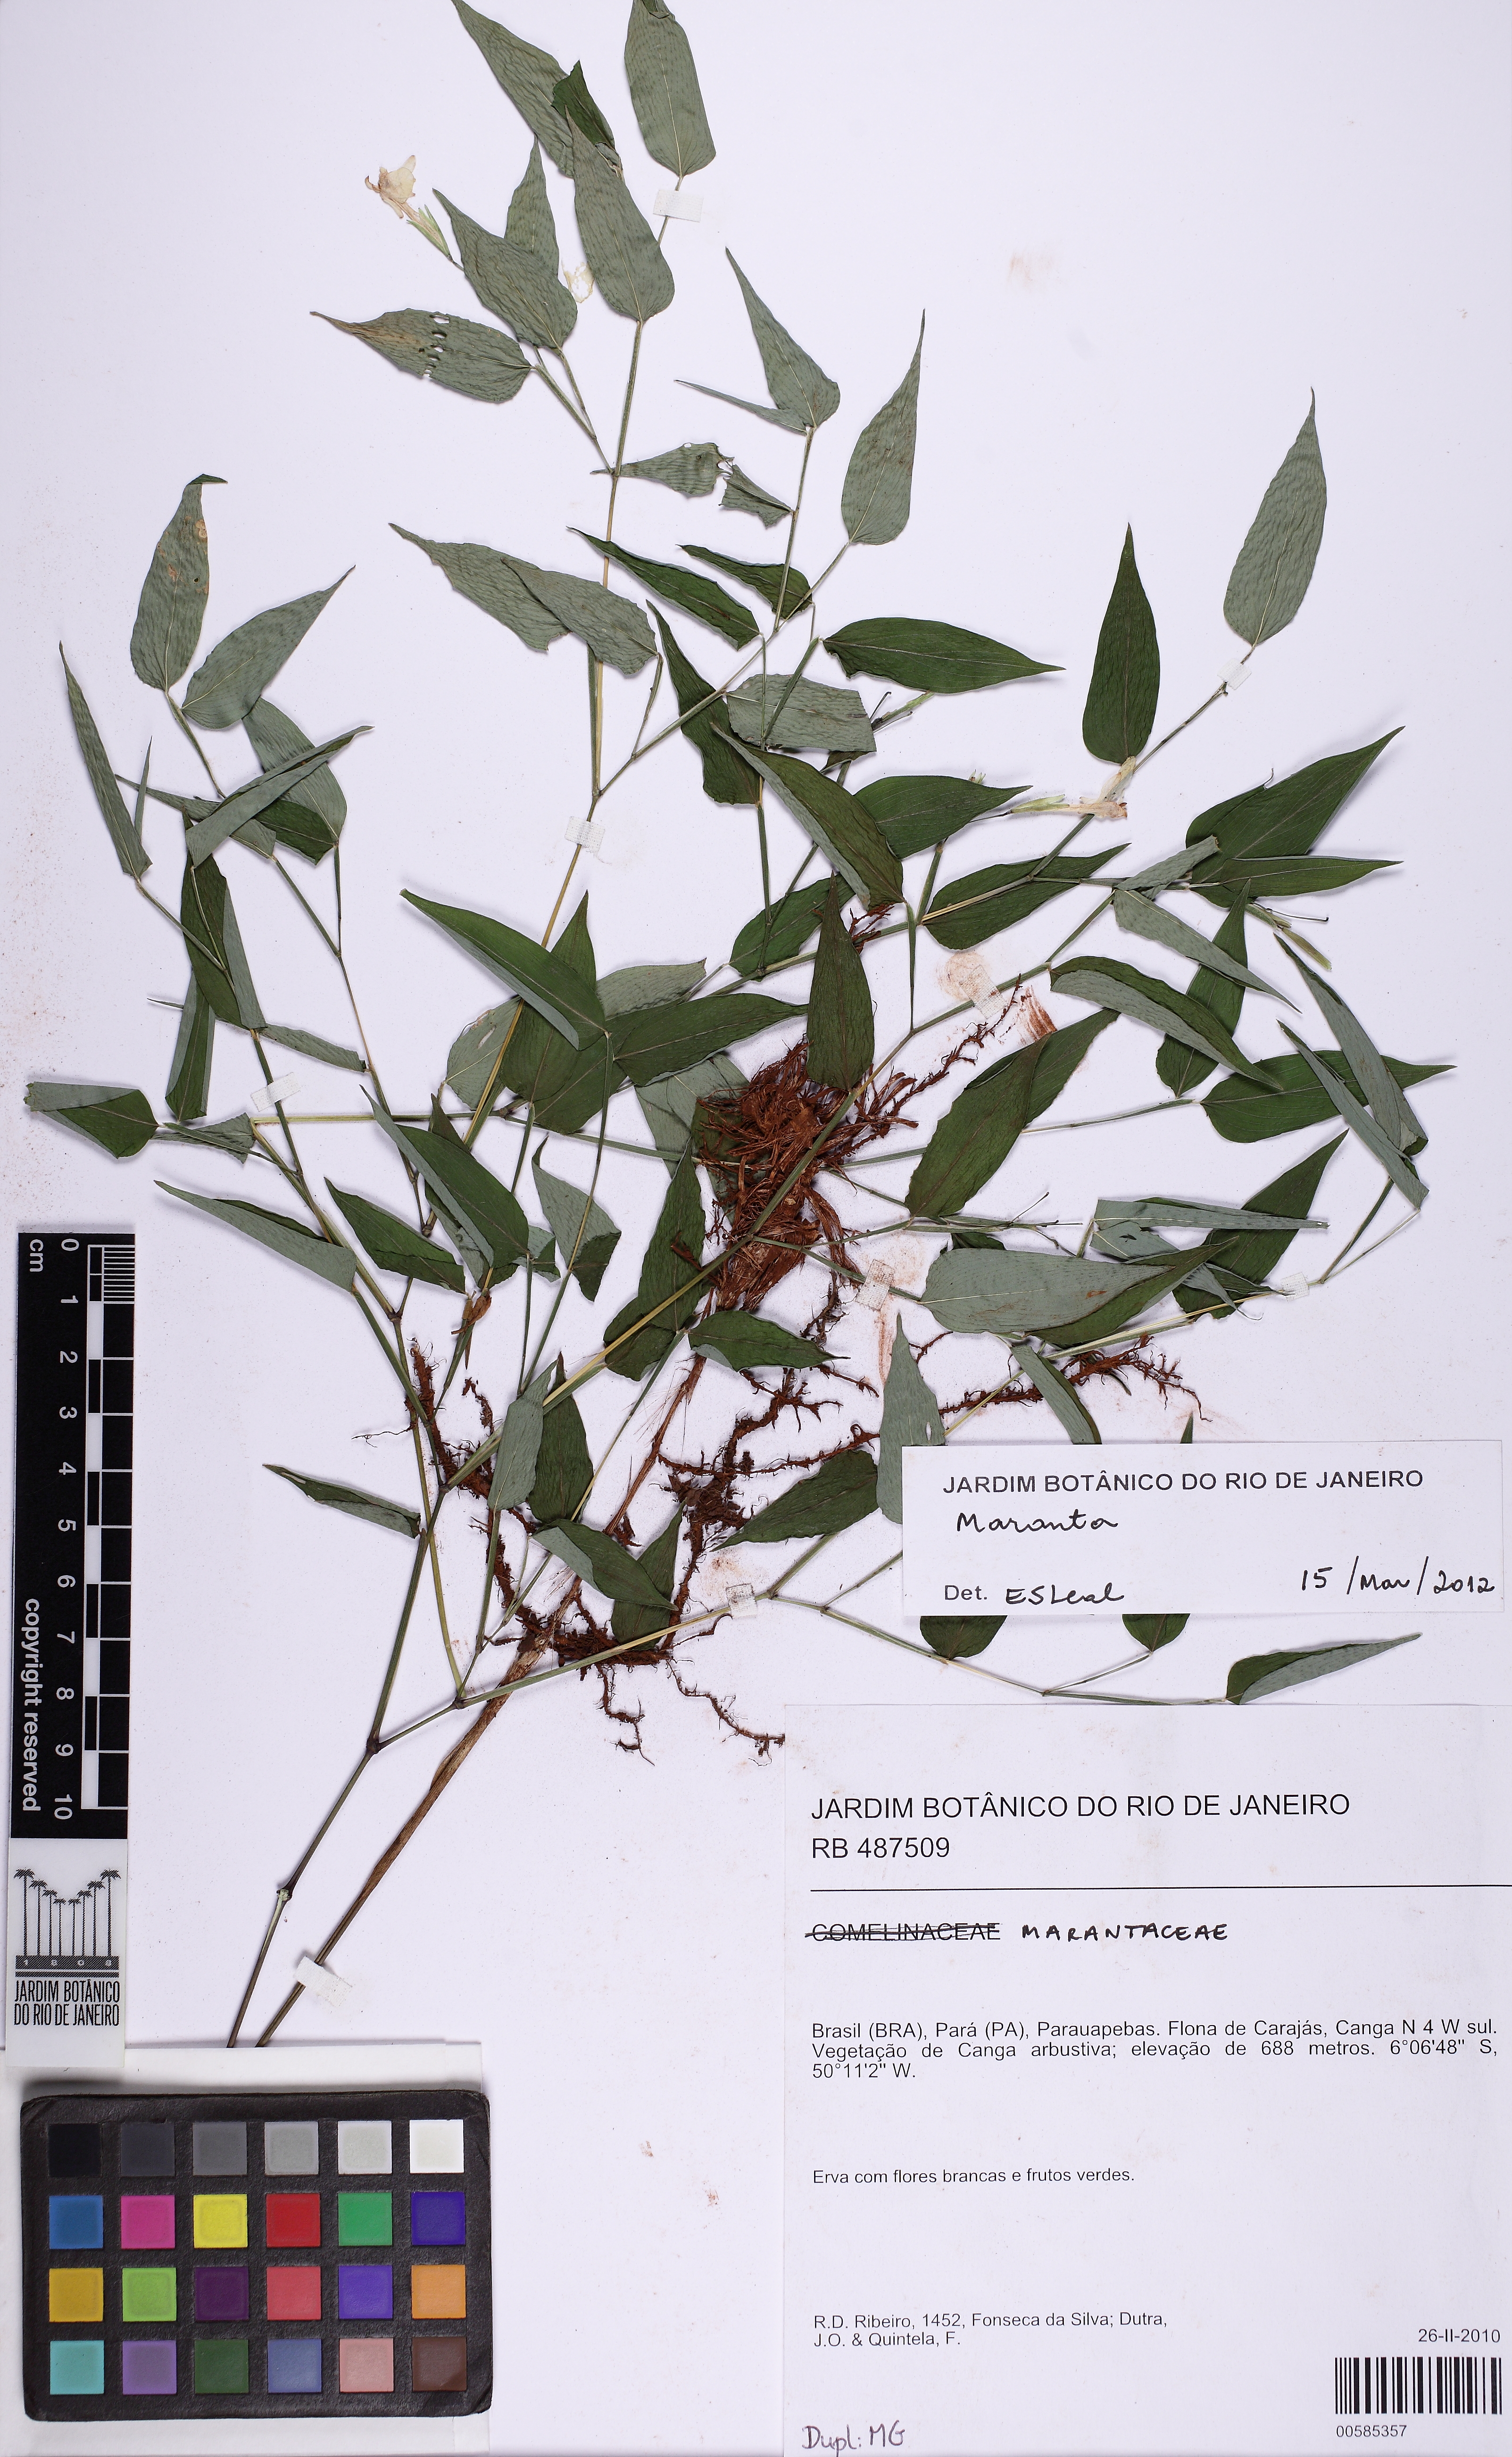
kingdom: Plantae
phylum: Tracheophyta
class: Liliopsida
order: Zingiberales
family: Marantaceae
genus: Maranta
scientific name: Maranta ruiziana
